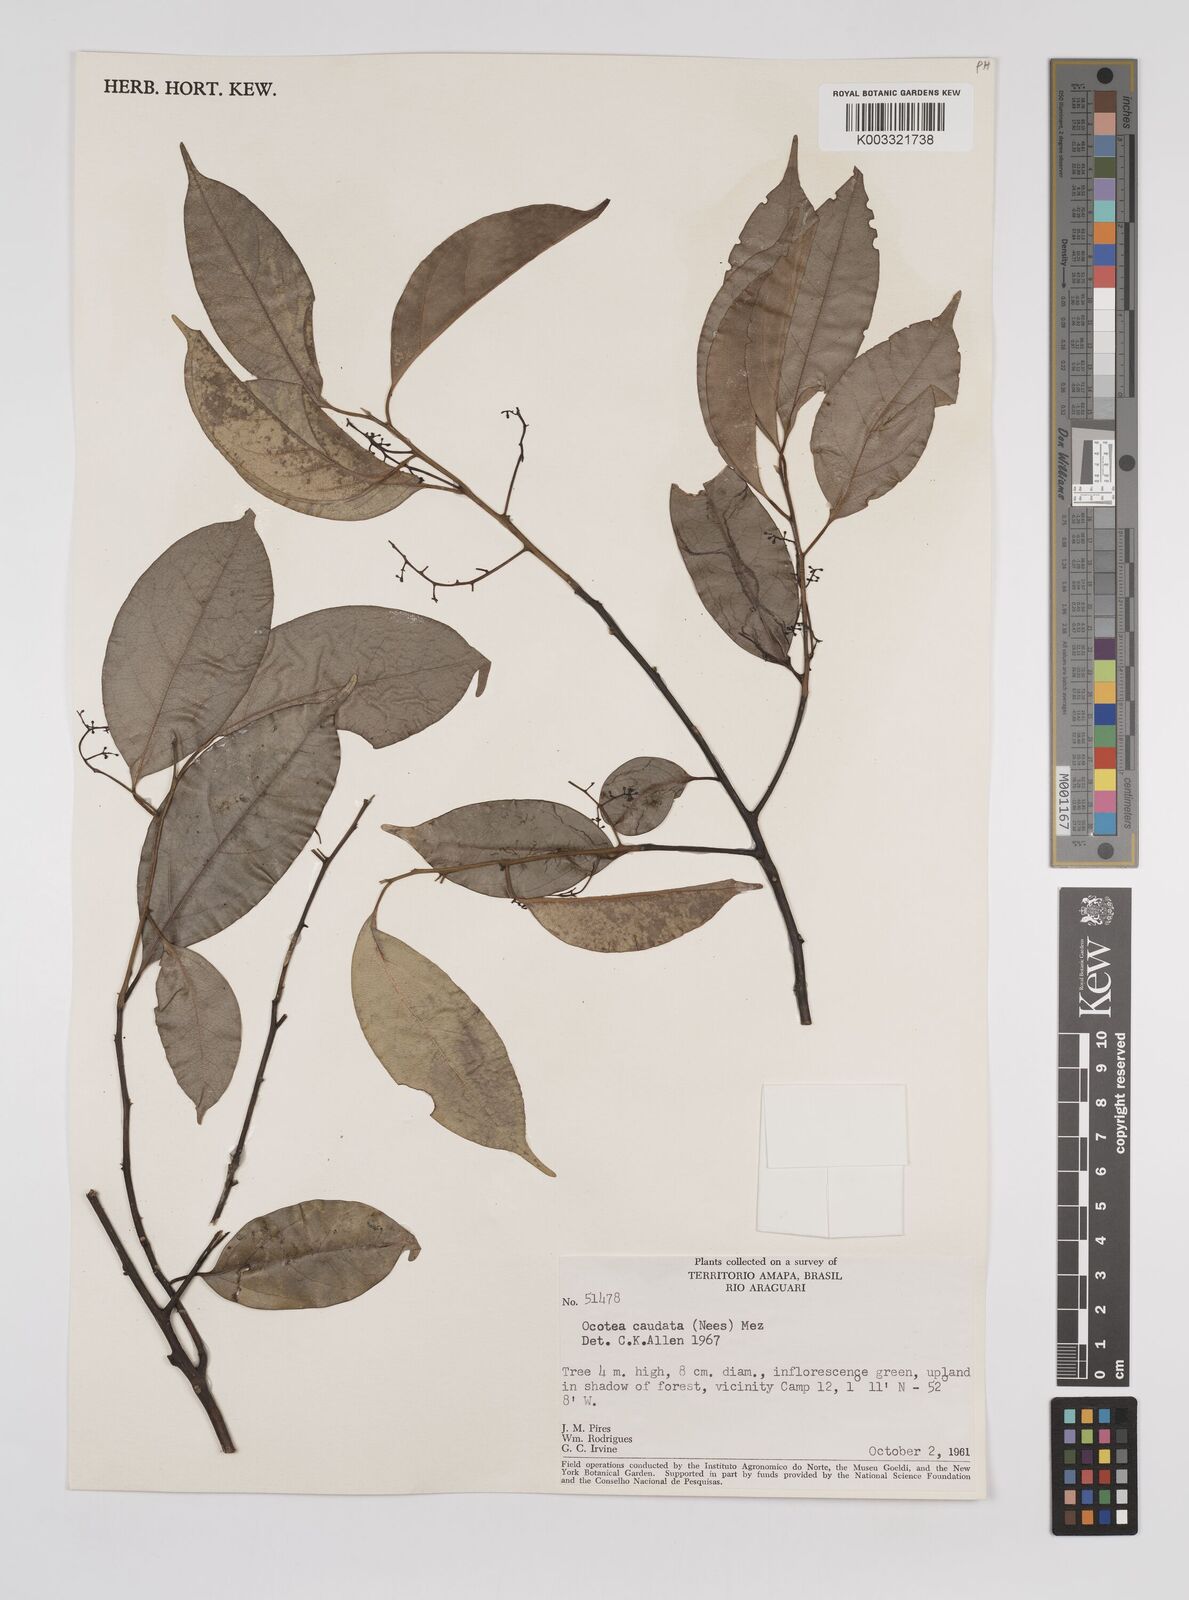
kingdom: Plantae
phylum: Tracheophyta
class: Magnoliopsida
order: Laurales
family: Lauraceae
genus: Ocotea
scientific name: Ocotea leptobotra
